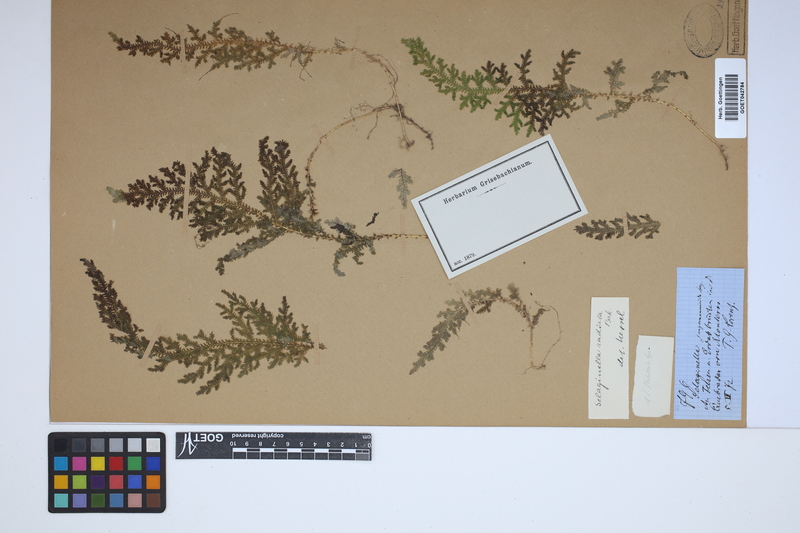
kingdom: Plantae
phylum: Tracheophyta
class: Lycopodiopsida
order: Selaginellales
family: Selaginellaceae
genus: Selaginella
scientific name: Selaginella radiata
